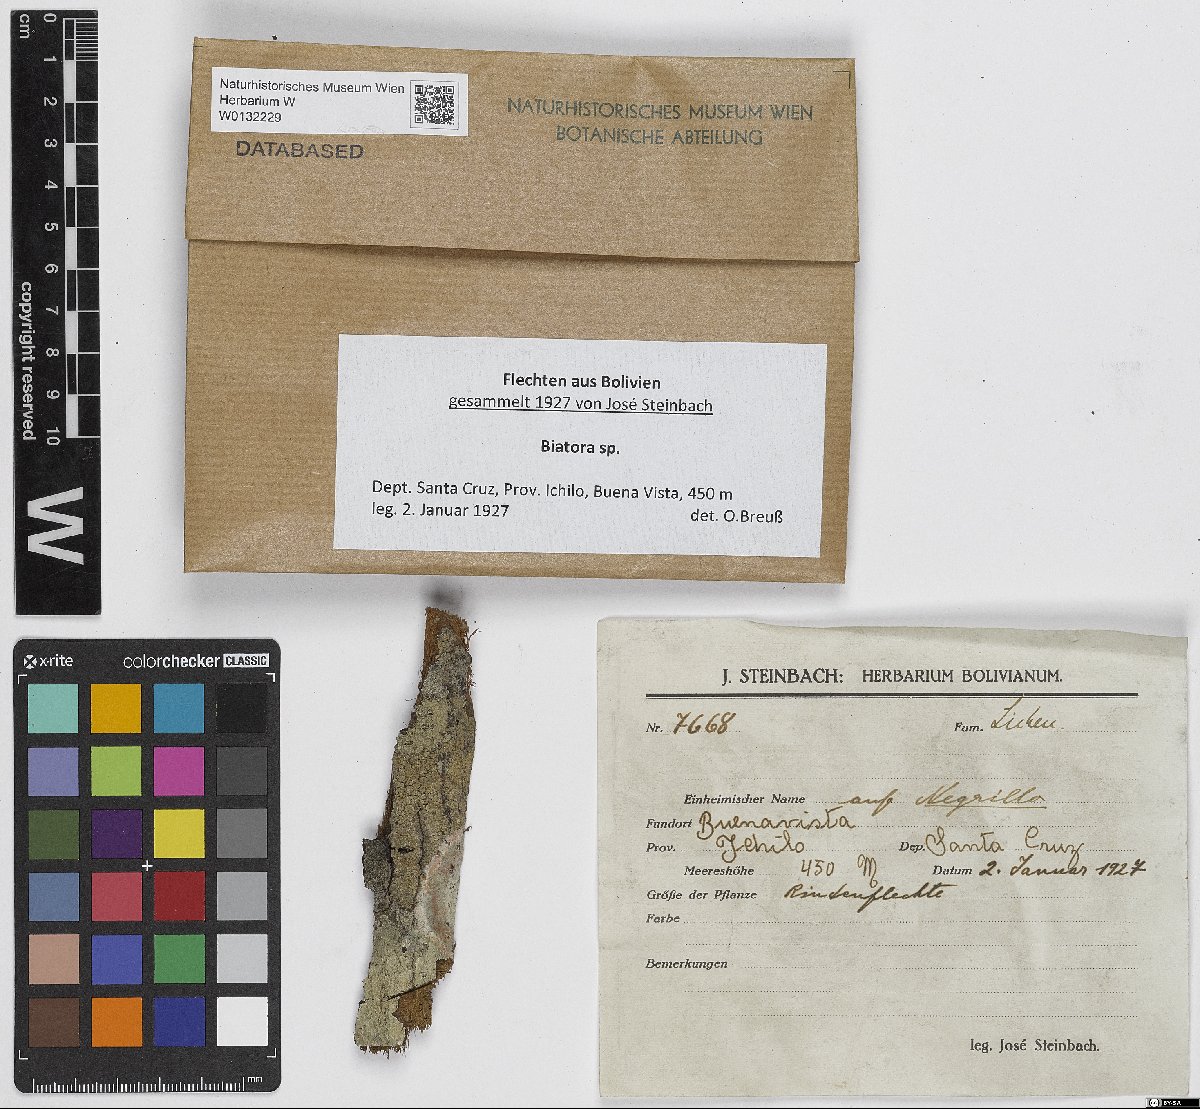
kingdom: Fungi
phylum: Ascomycota
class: Lecanoromycetes
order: Lecanorales
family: Ramalinaceae
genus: Biatora
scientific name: Biatora
